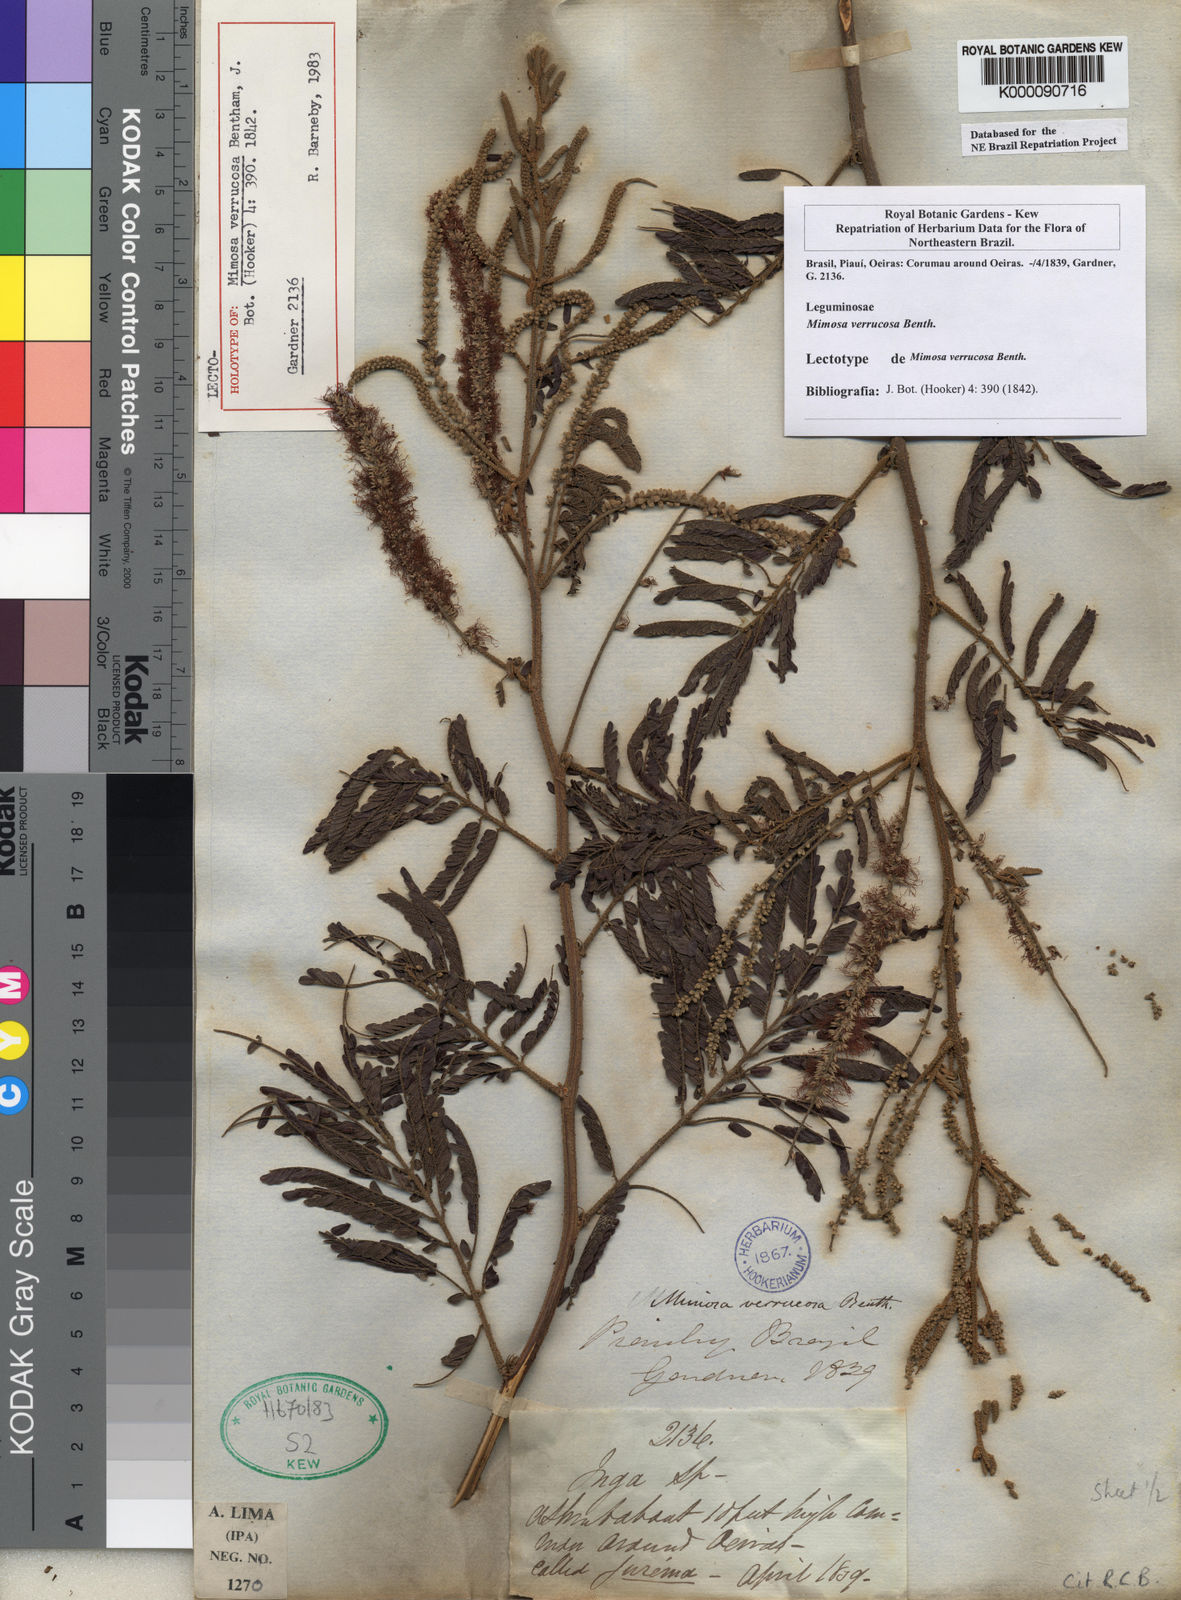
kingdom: Plantae
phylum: Tracheophyta
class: Magnoliopsida
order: Fabales
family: Fabaceae
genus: Mimosa
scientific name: Mimosa verrucosa
